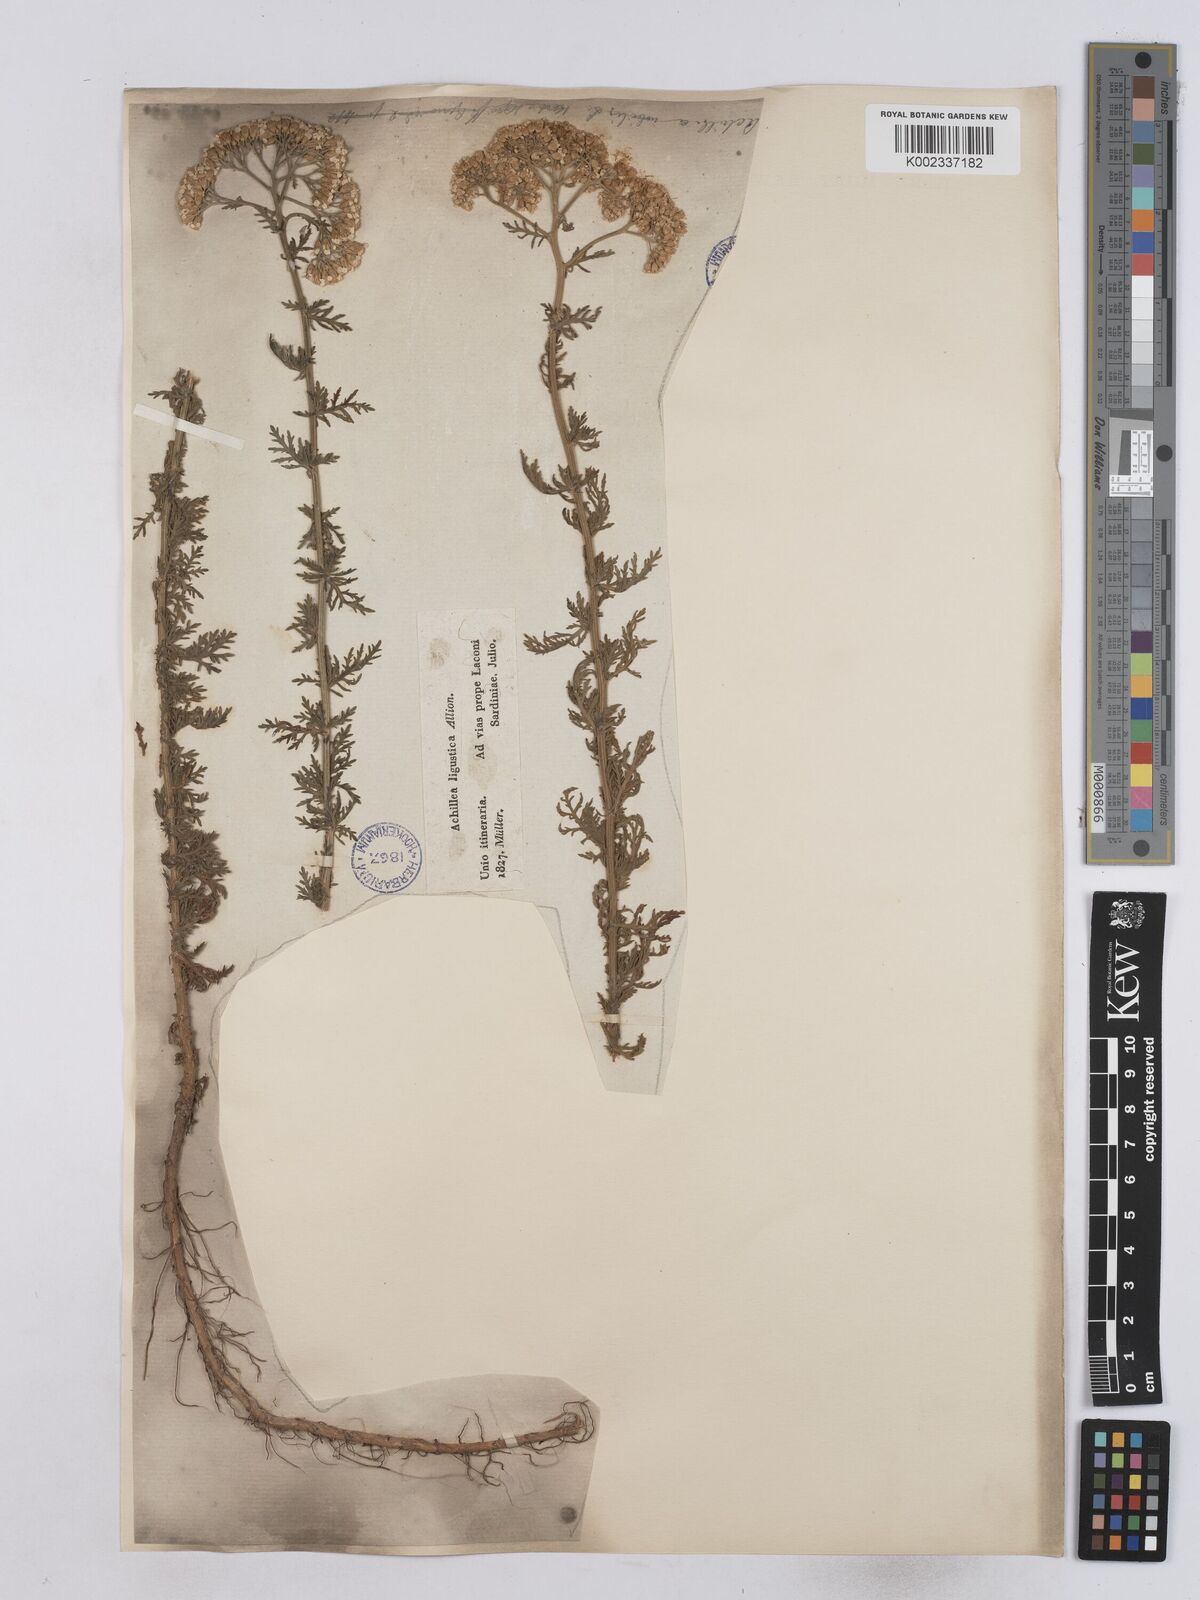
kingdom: Plantae
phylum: Tracheophyta
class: Magnoliopsida
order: Asterales
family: Asteraceae
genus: Achillea
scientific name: Achillea ligustica
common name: Southern yarrow
